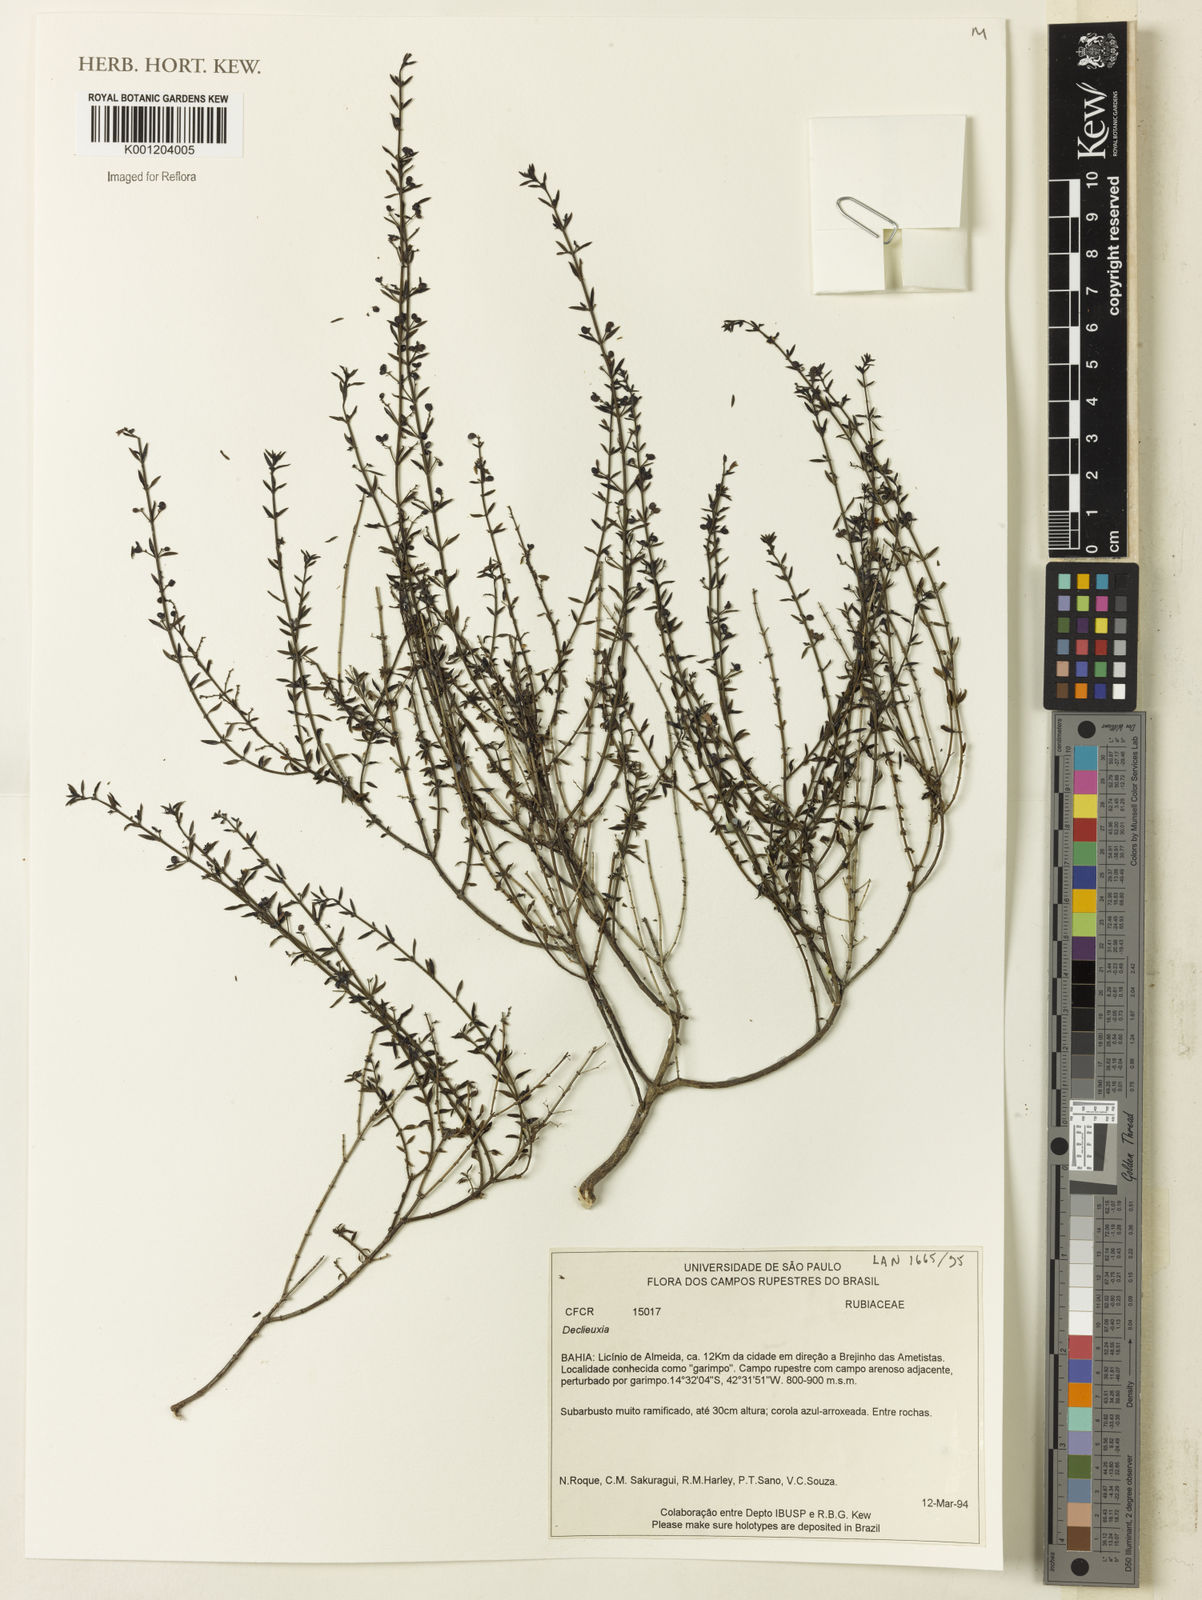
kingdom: Plantae
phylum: Tracheophyta
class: Magnoliopsida
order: Gentianales
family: Rubiaceae
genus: Declieuxia
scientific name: Declieuxia
